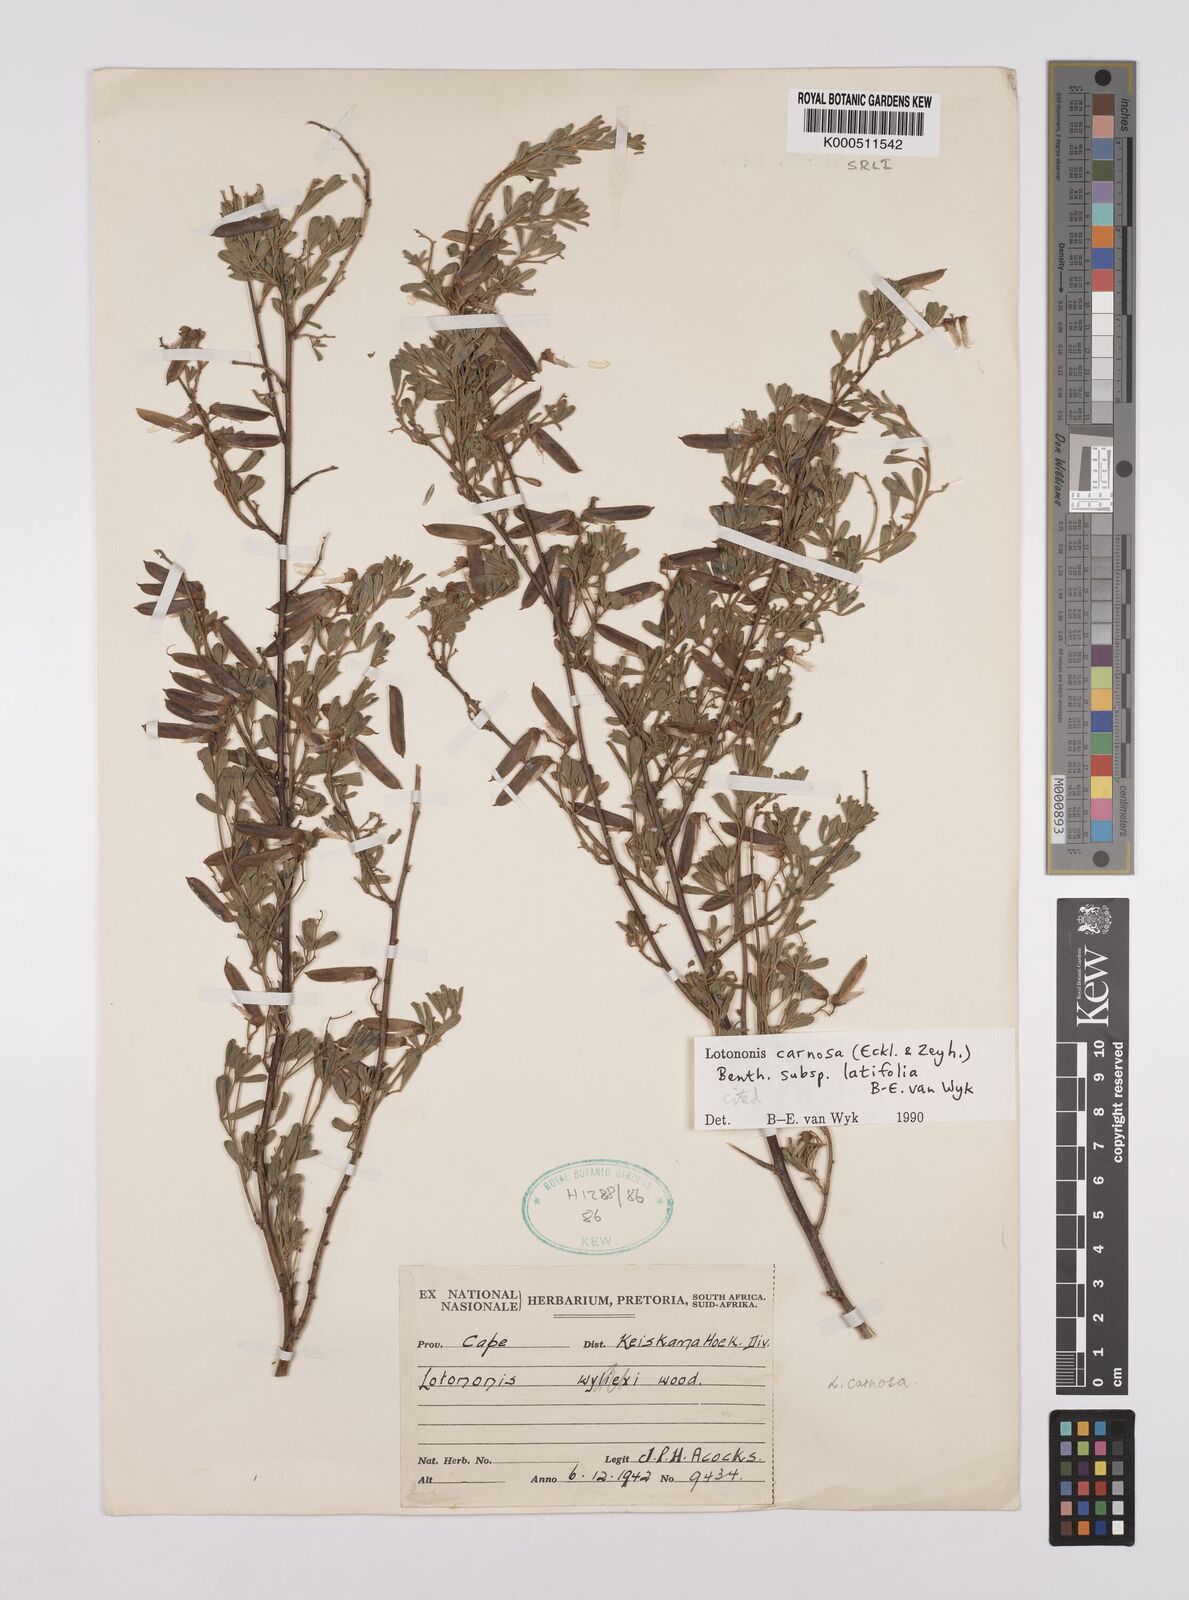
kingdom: Plantae
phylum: Tracheophyta
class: Magnoliopsida
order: Fabales
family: Fabaceae
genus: Lotononis
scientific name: Lotononis carnosa
